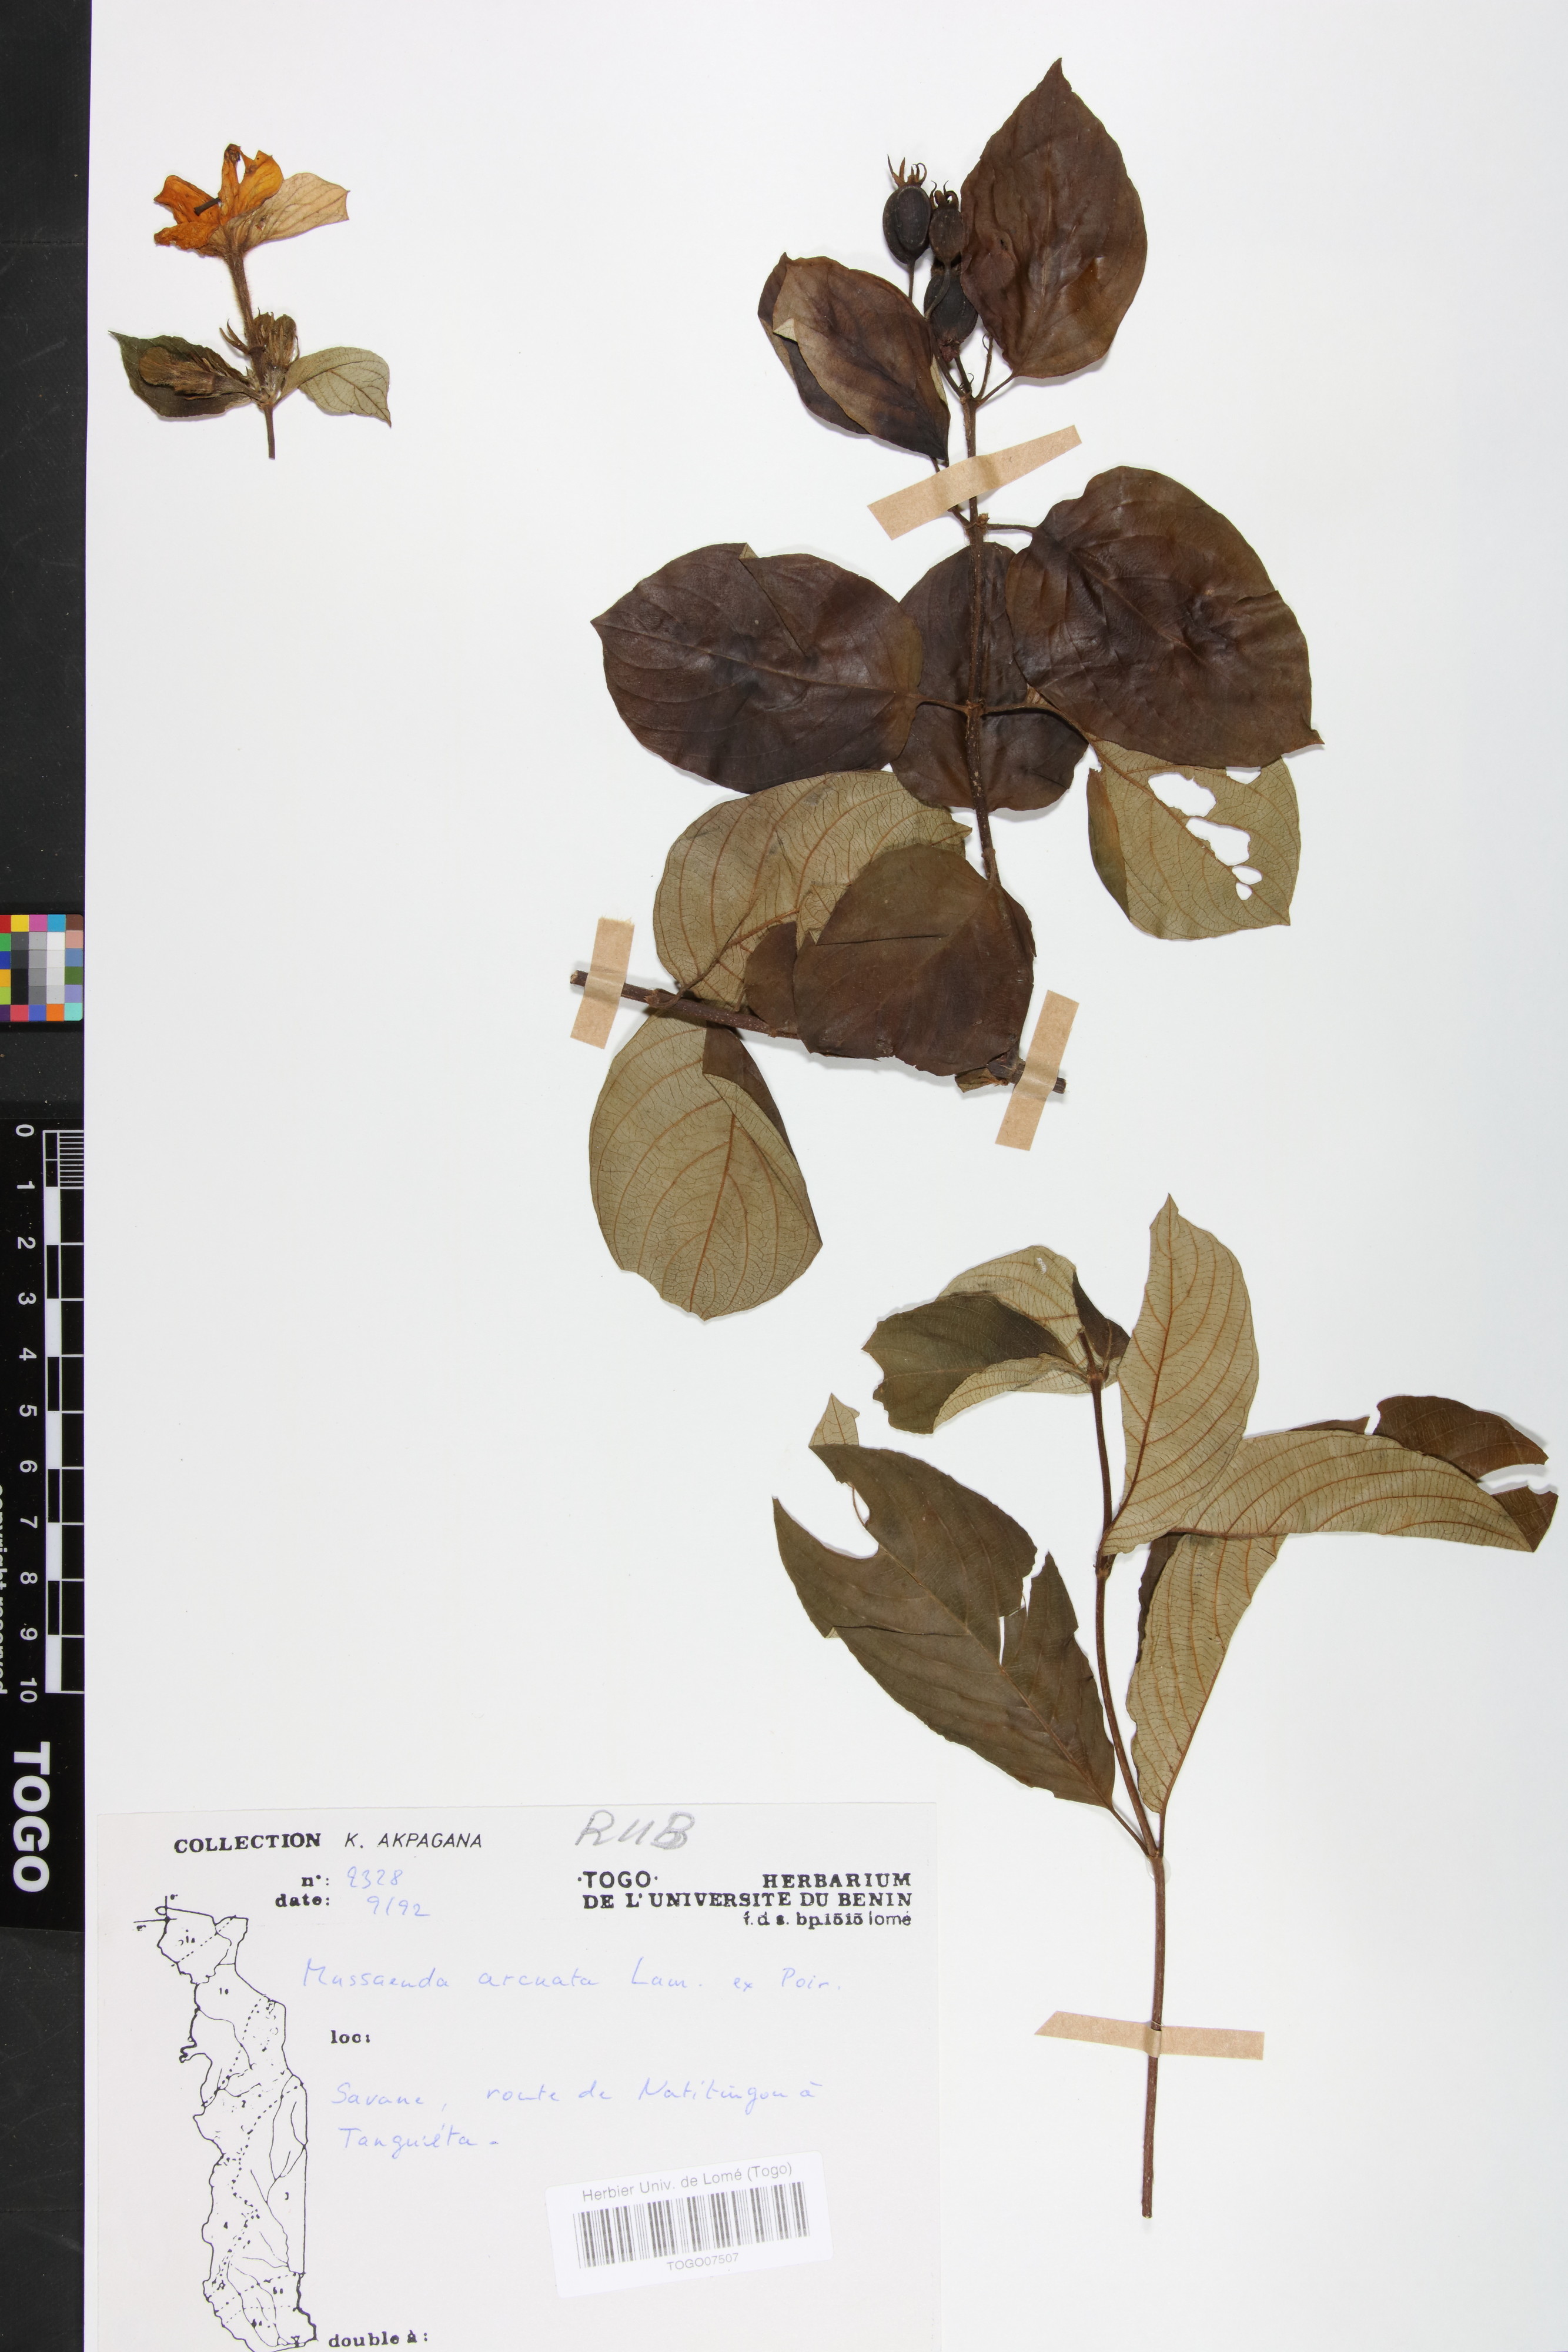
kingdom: Plantae
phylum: Tracheophyta
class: Magnoliopsida
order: Gentianales
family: Rubiaceae
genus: Mussaenda
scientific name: Mussaenda arcuata
